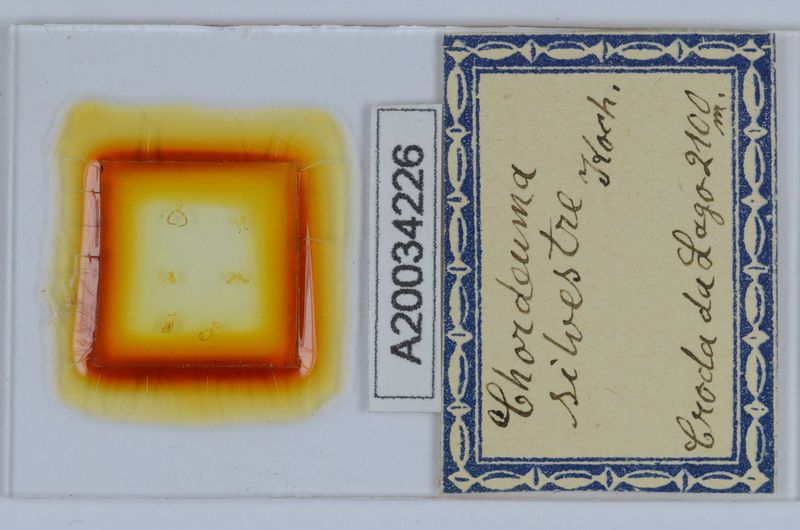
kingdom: Animalia
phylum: Arthropoda
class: Diplopoda
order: Chordeumatida
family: Chordeumatidae
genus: Chordeuma
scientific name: Chordeuma sylvestre
